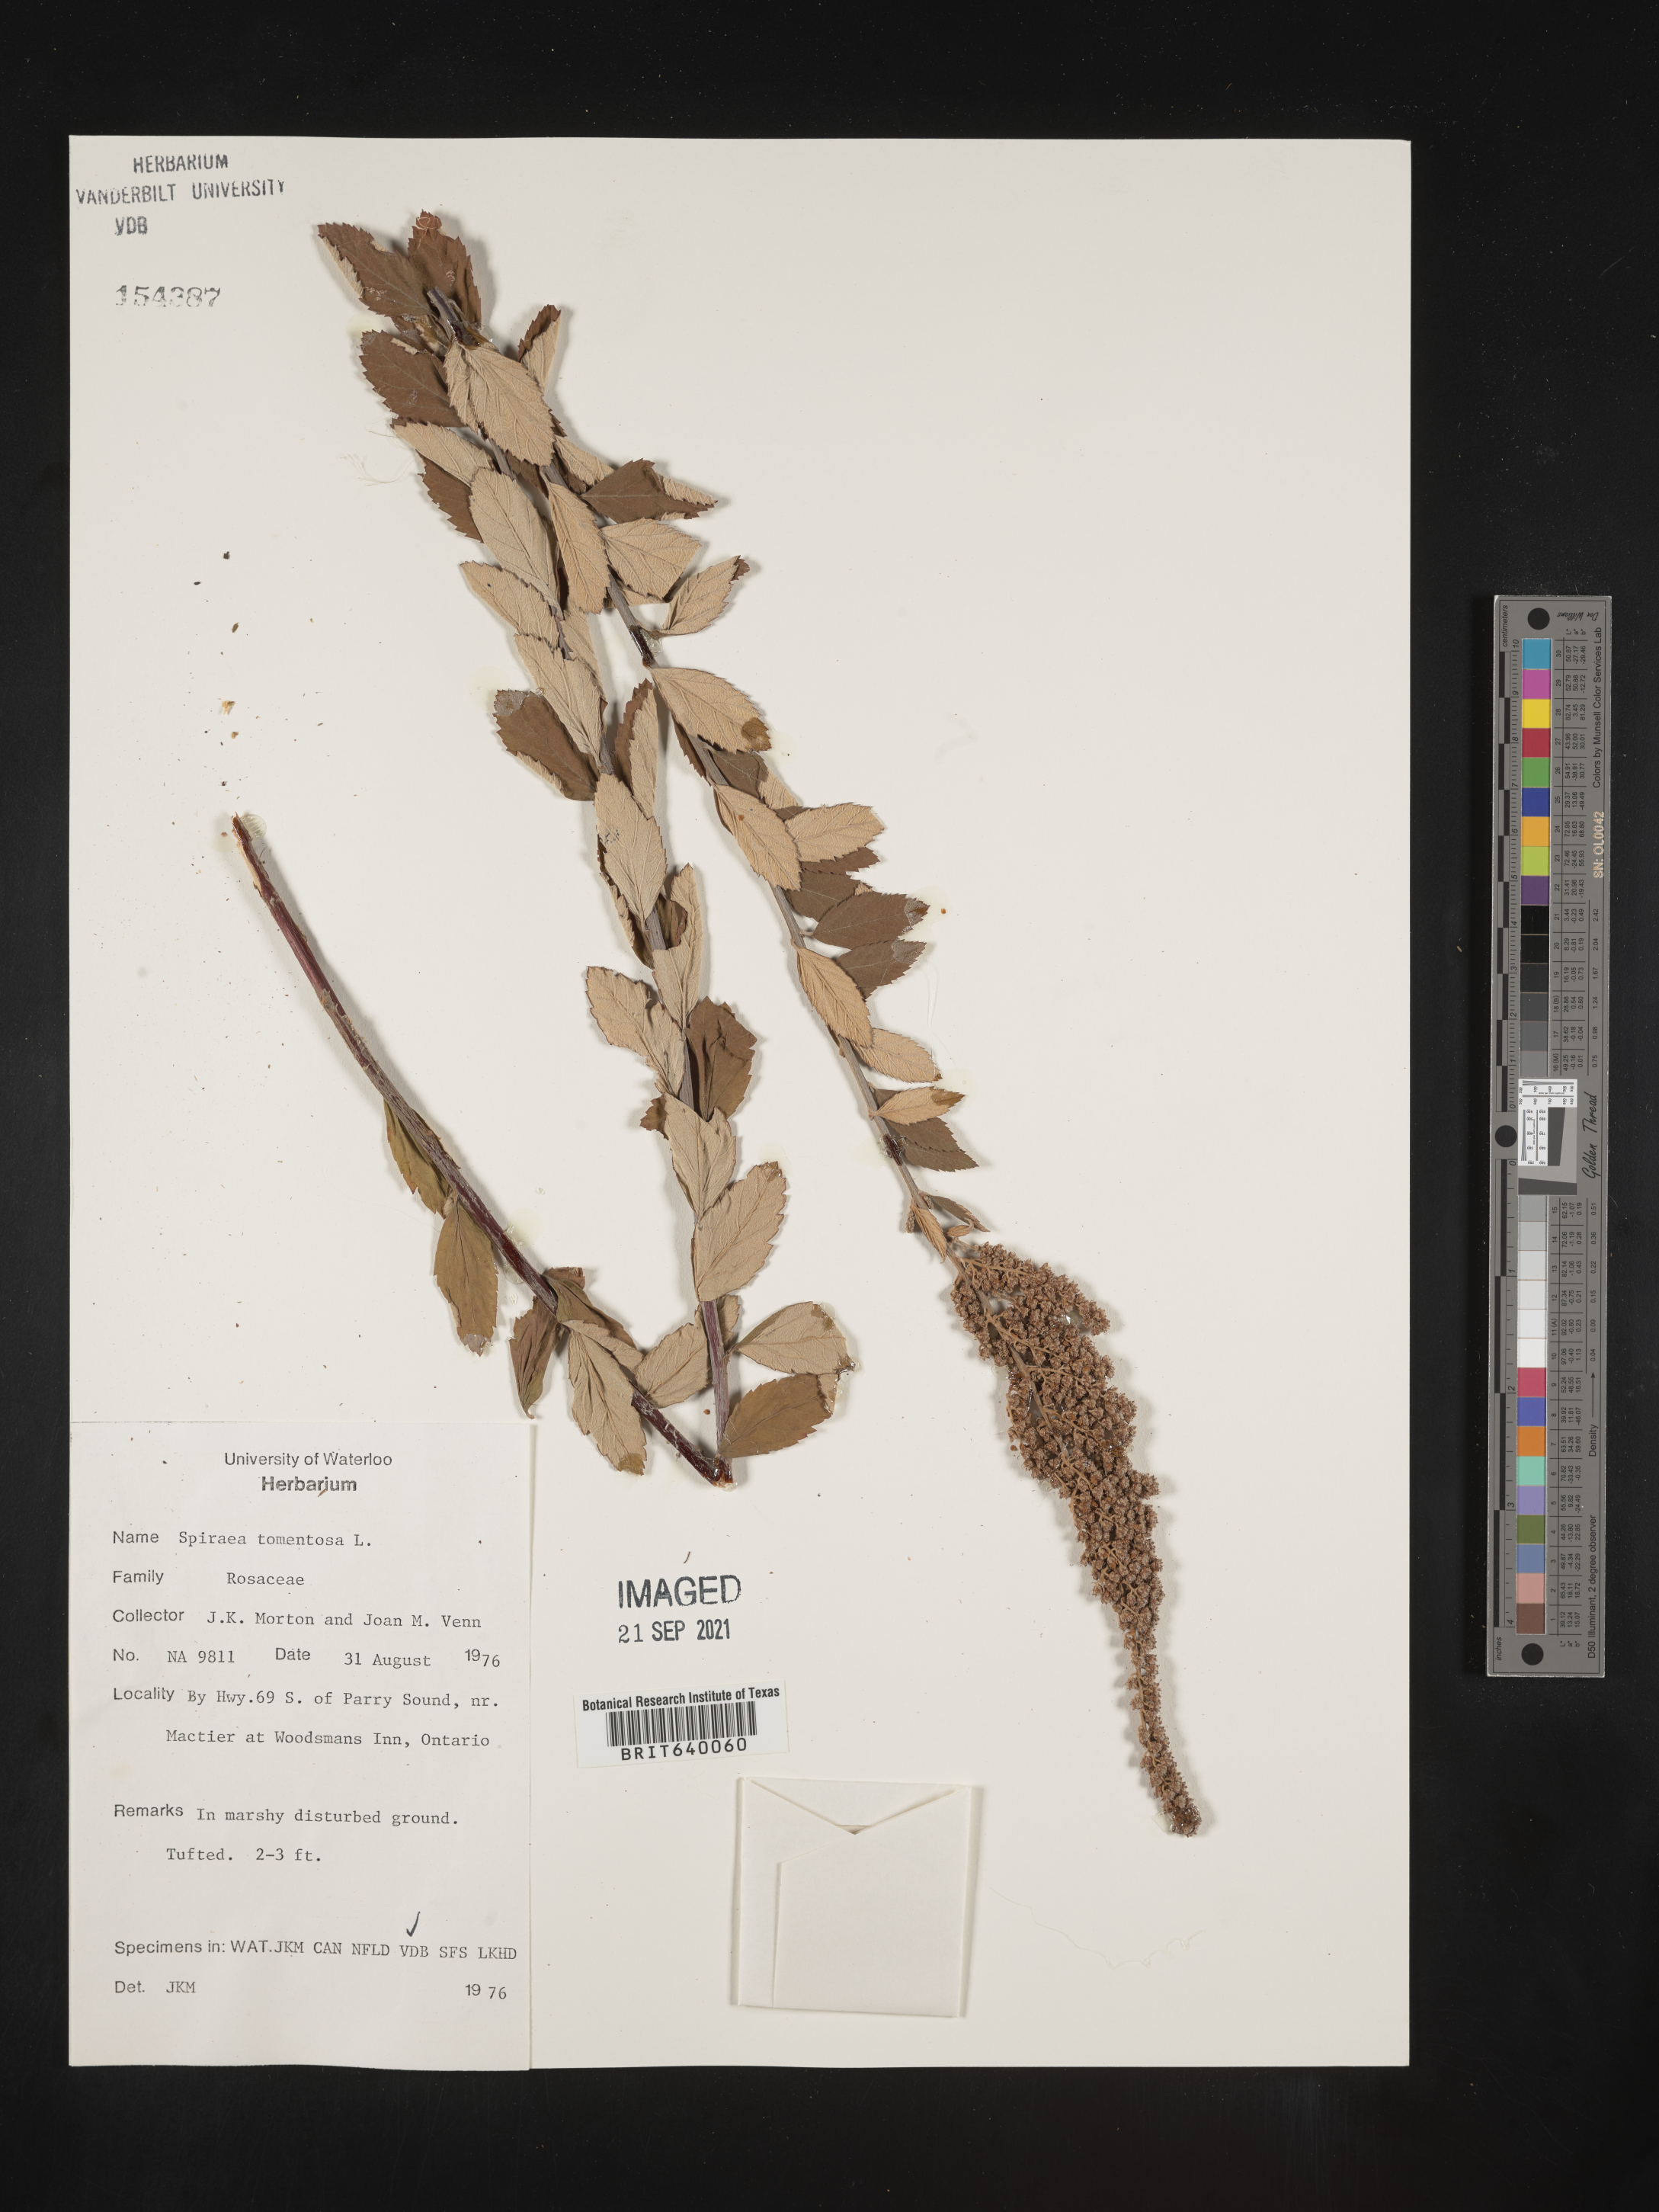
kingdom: Plantae
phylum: Tracheophyta
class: Magnoliopsida
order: Rosales
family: Rosaceae
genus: Spiraea
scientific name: Spiraea
